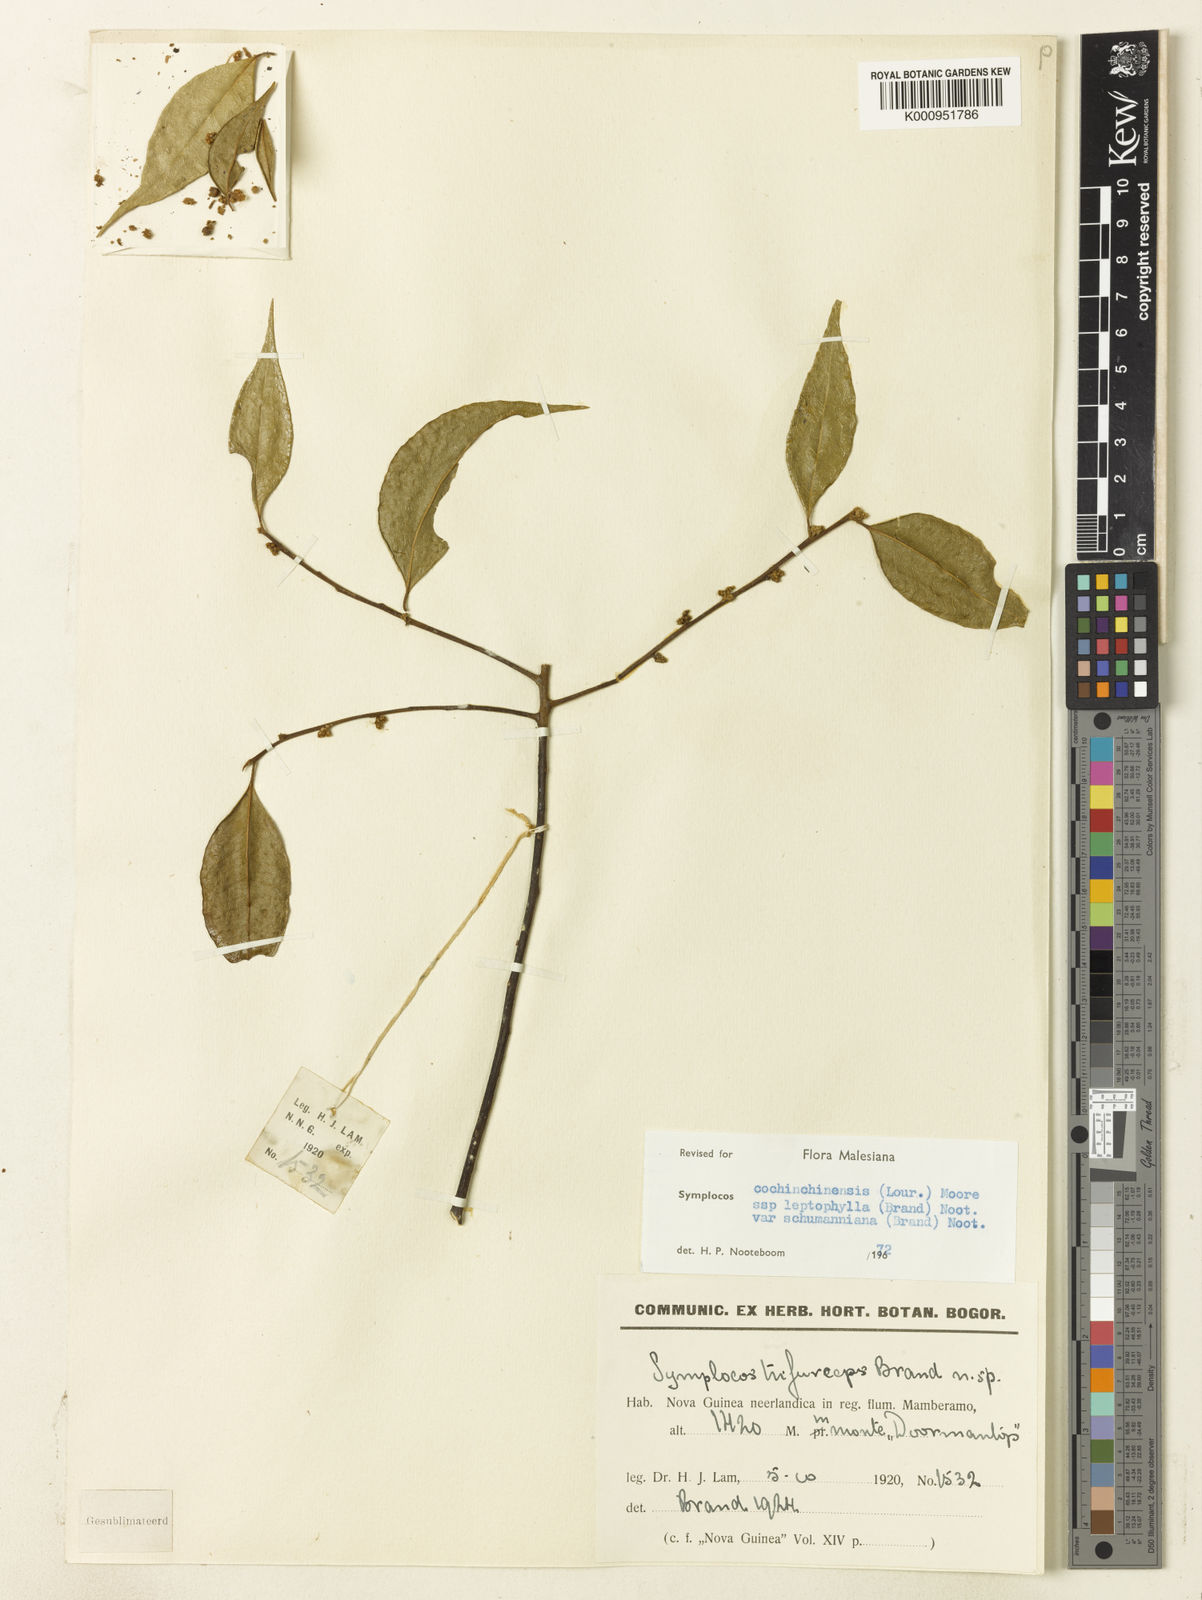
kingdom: Plantae
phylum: Tracheophyta
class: Magnoliopsida
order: Ericales
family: Symplocaceae
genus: Symplocos
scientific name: Symplocos cochinchinensis
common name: Buff hazelwood
